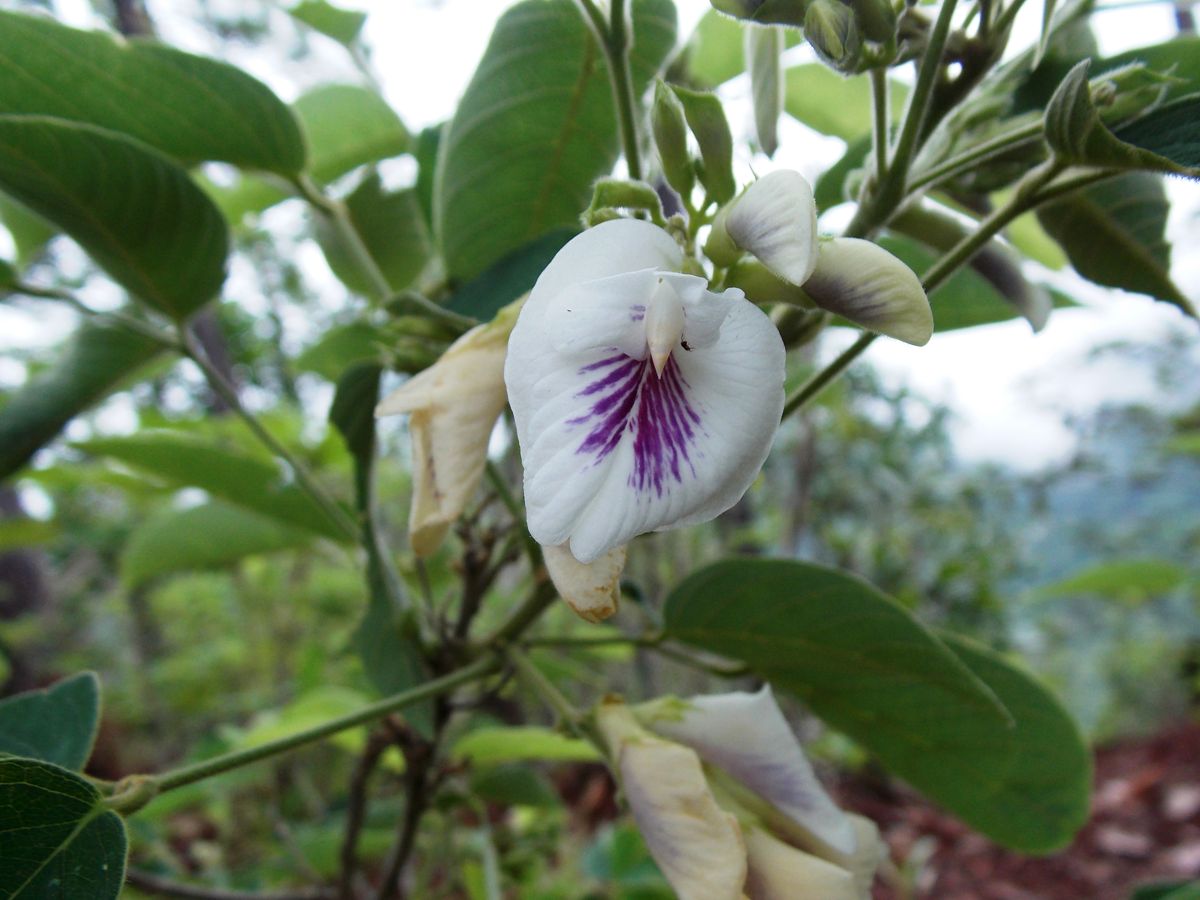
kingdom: Plantae
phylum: Tracheophyta
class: Magnoliopsida
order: Fabales
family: Fabaceae
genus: Clitoria
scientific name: Clitoria polystachya
